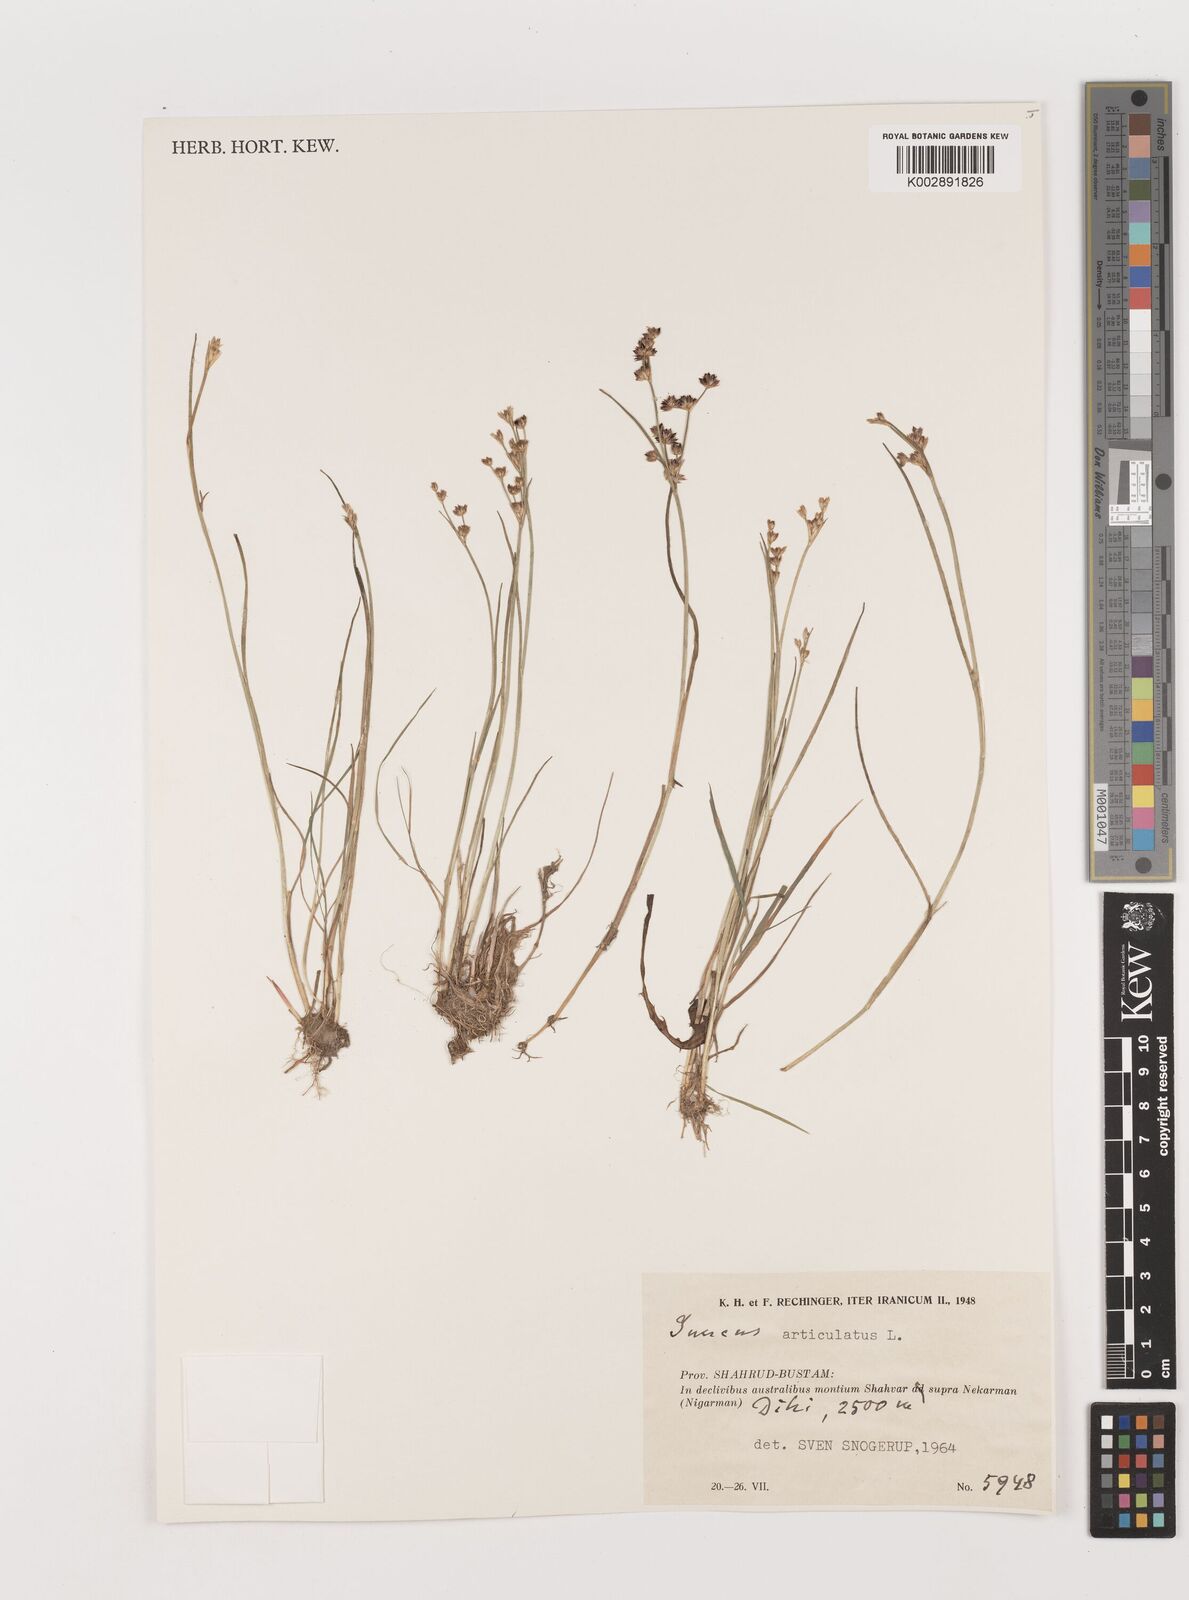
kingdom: Plantae
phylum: Tracheophyta
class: Liliopsida
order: Poales
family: Juncaceae
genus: Juncus
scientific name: Juncus articulatus
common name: Jointed rush
